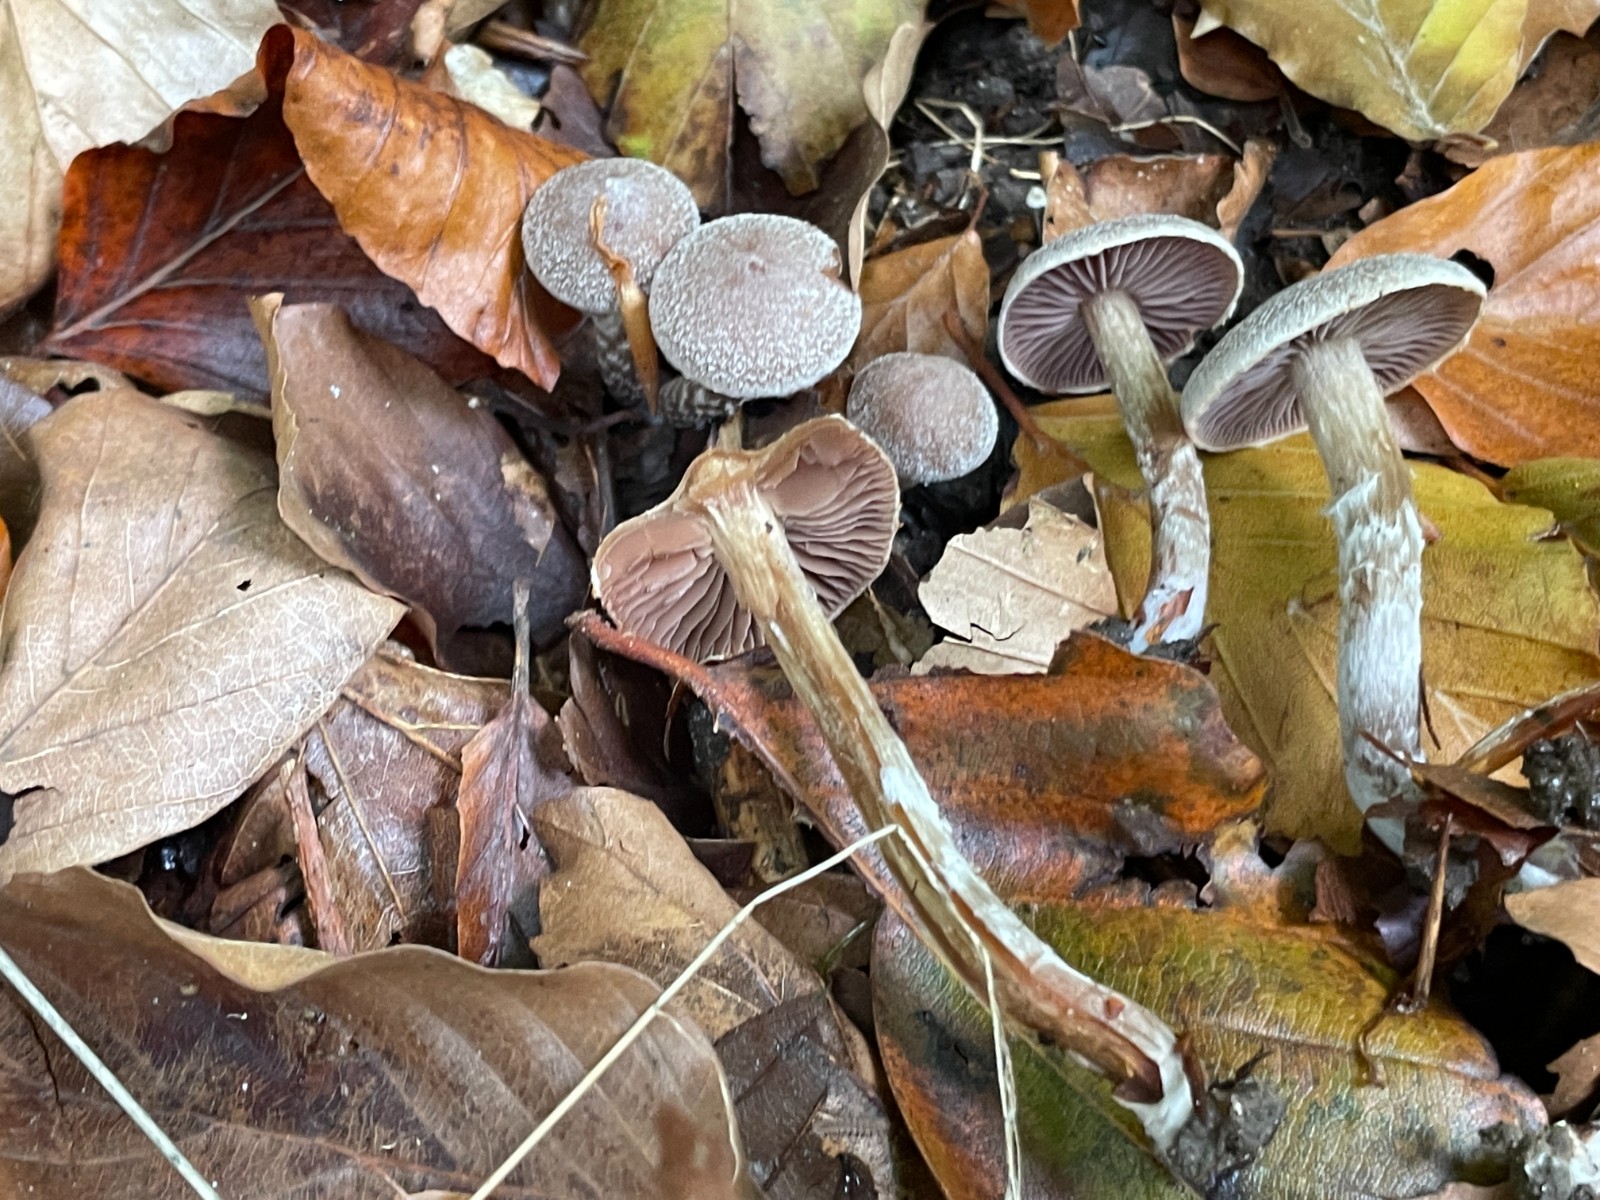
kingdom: Fungi
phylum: Basidiomycota
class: Agaricomycetes
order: Agaricales
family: Cortinariaceae
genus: Cortinarius
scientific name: Cortinarius geraniolens
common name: geranium-slørhat
